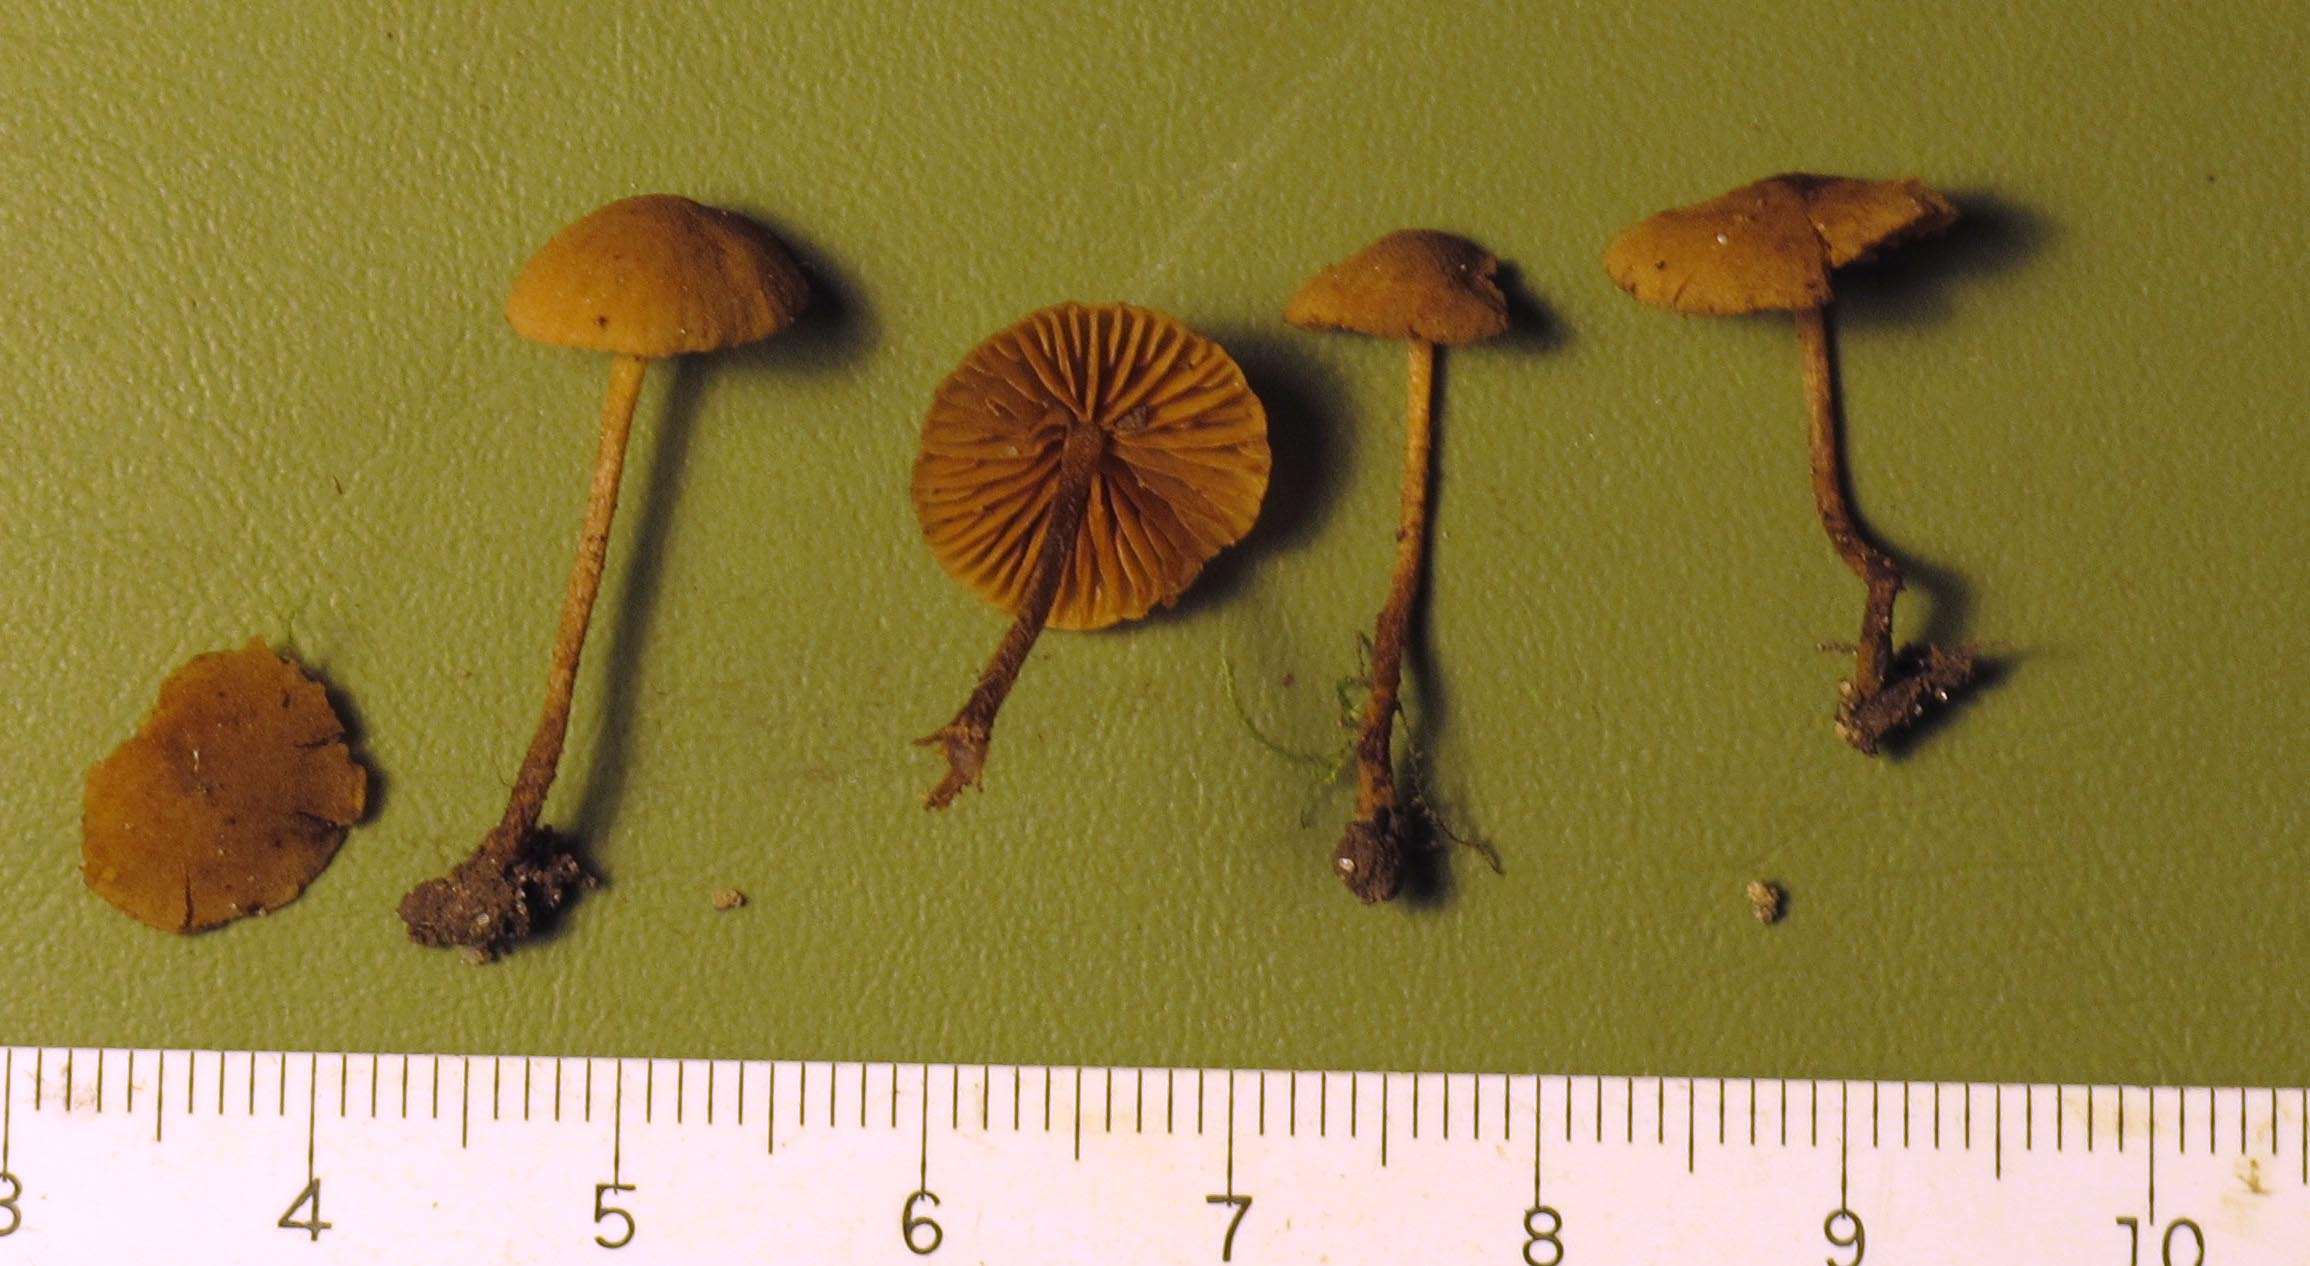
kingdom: Fungi
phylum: Basidiomycota
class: Agaricomycetes
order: Agaricales
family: Tubariaceae
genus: Flammulaster
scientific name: Flammulaster granulosus
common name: gulbrun grynskælhat
